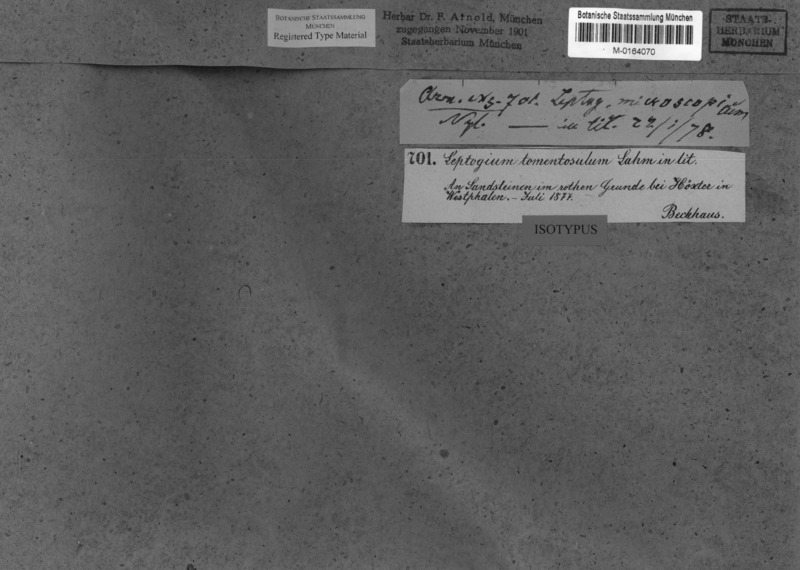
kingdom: Fungi
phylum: Ascomycota
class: Lecanoromycetes
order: Peltigerales
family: Collemataceae
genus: Leptogium
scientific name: Leptogium
